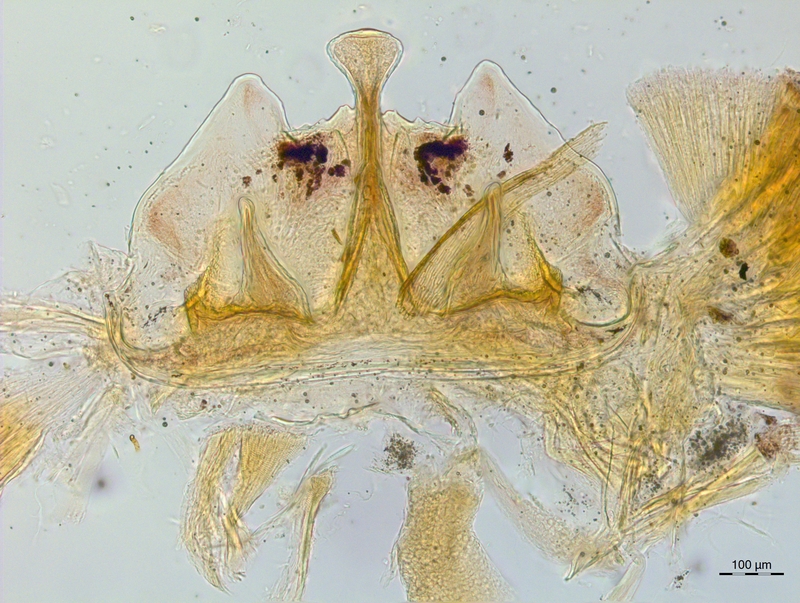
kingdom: Animalia
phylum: Arthropoda
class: Diplopoda
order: Chordeumatida
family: Craspedosomatidae
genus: Craspedosoma
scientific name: Craspedosoma rawlinsii
